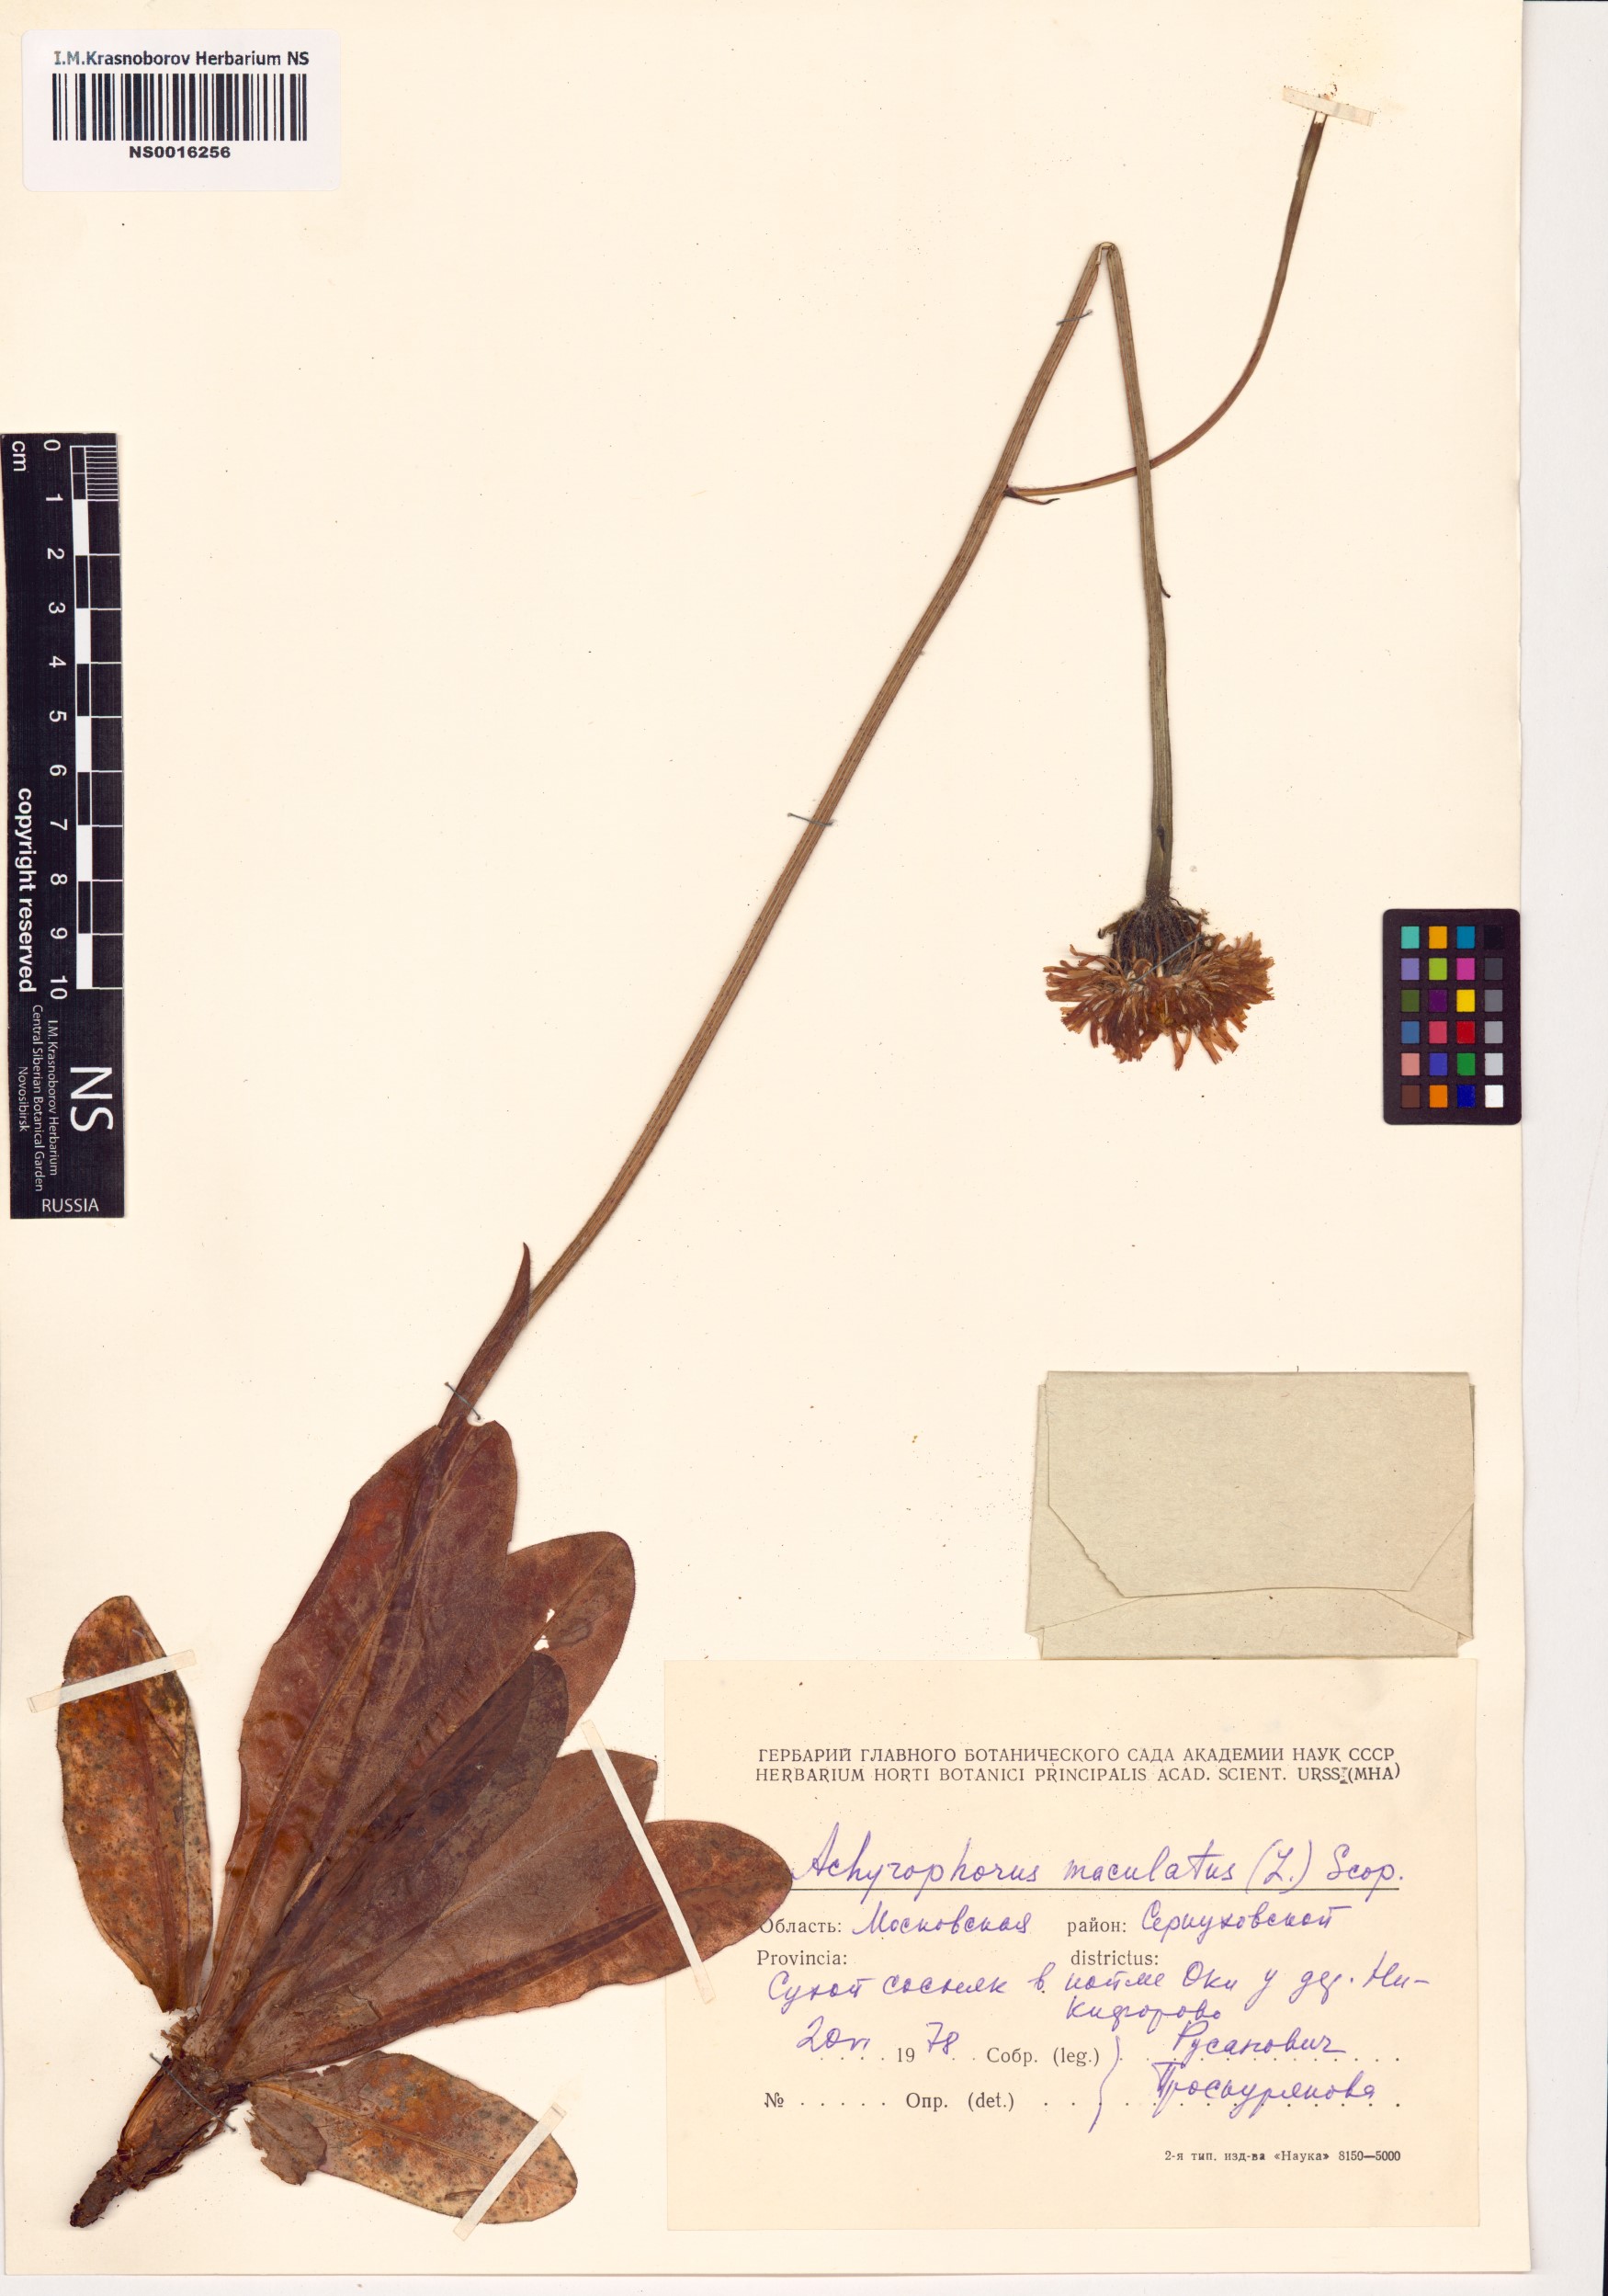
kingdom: Plantae
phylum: Tracheophyta
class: Magnoliopsida
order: Asterales
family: Asteraceae
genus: Trommsdorffia
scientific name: Trommsdorffia maculata
